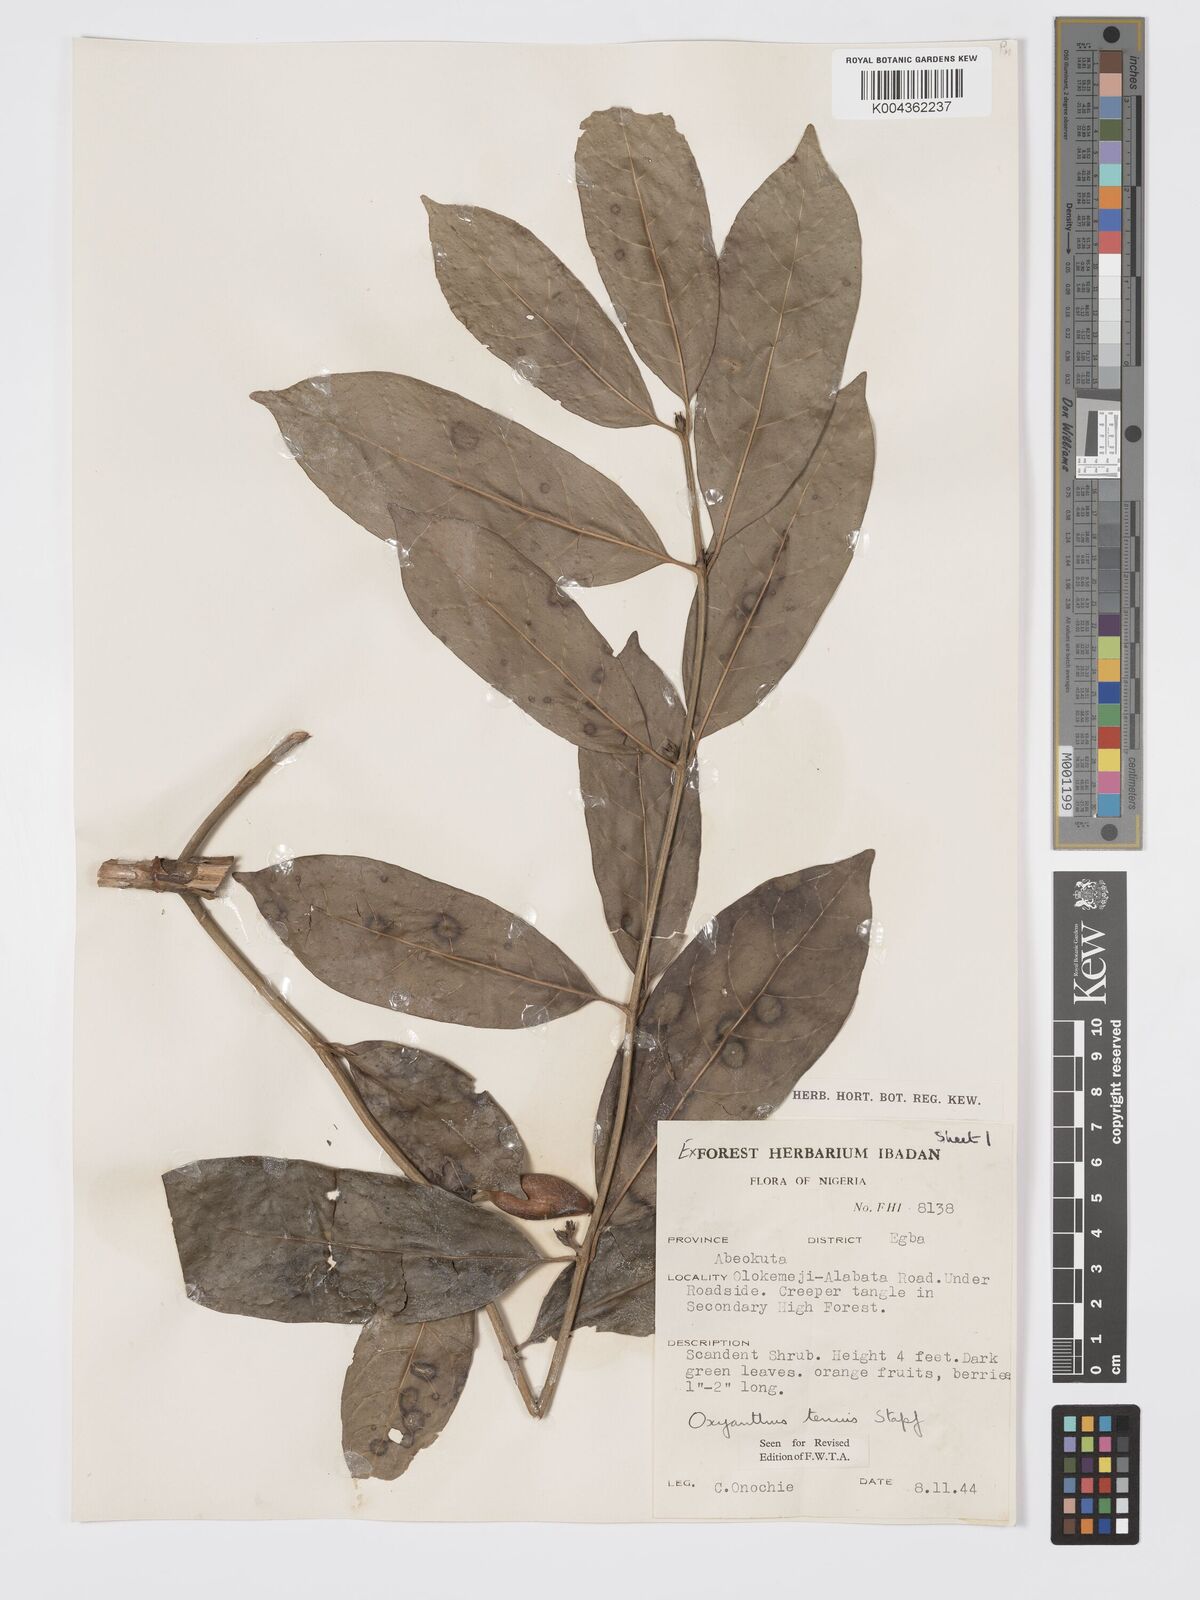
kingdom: Plantae
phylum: Tracheophyta
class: Magnoliopsida
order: Gentianales
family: Rubiaceae
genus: Oxyanthus
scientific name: Oxyanthus subpunctatus
